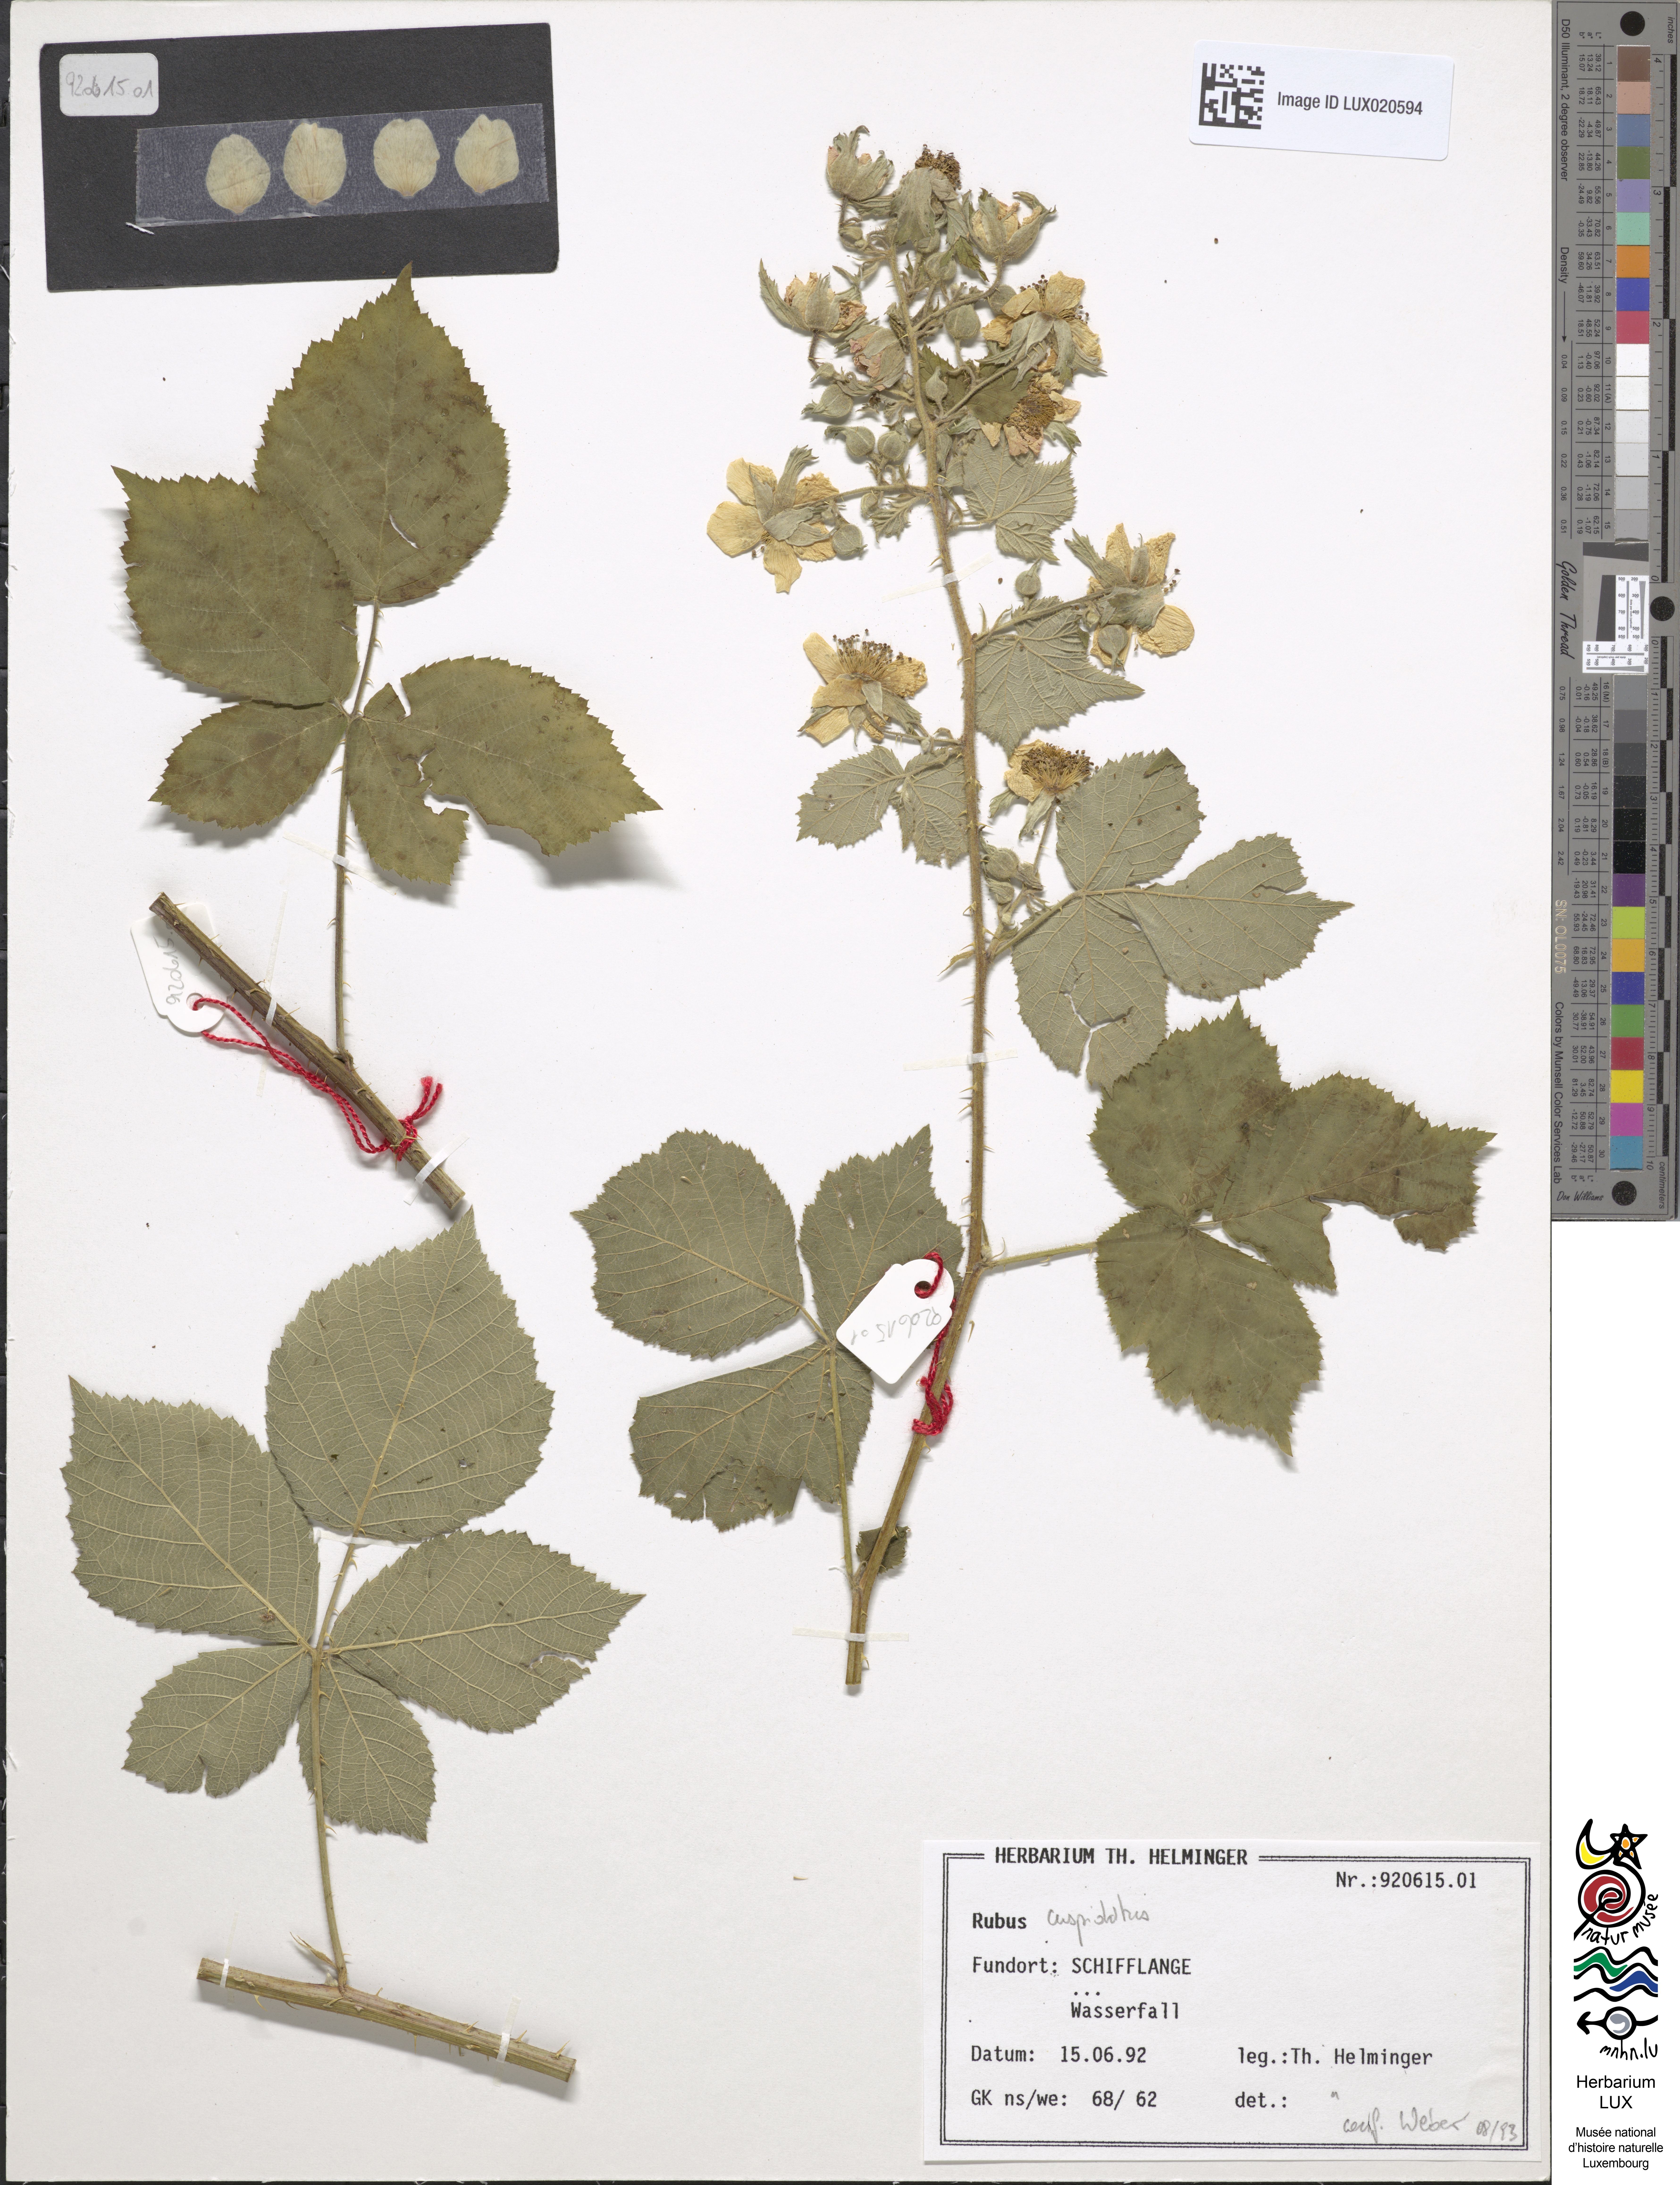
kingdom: Plantae
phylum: Tracheophyta
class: Magnoliopsida
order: Rosales
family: Rosaceae
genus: Rubus
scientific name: Rubus cuspidatus
